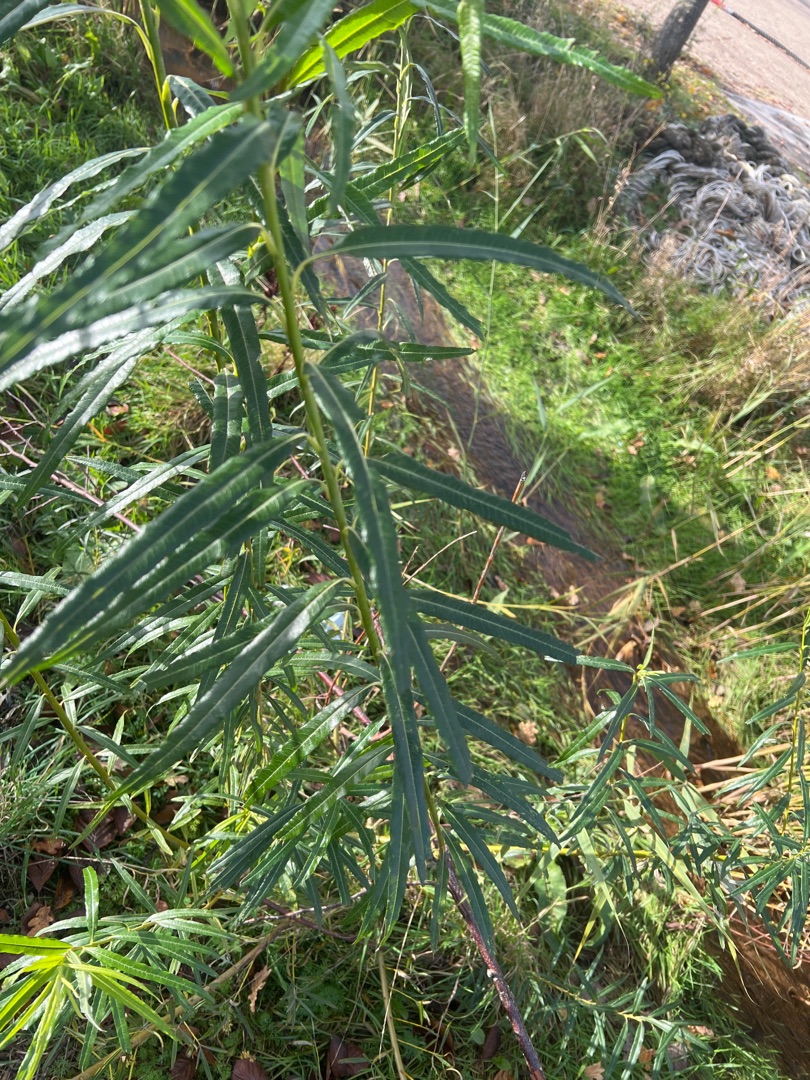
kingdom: Plantae
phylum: Tracheophyta
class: Magnoliopsida
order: Malpighiales
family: Salicaceae
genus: Salix
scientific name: Salix viminalis
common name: Bånd-pil
